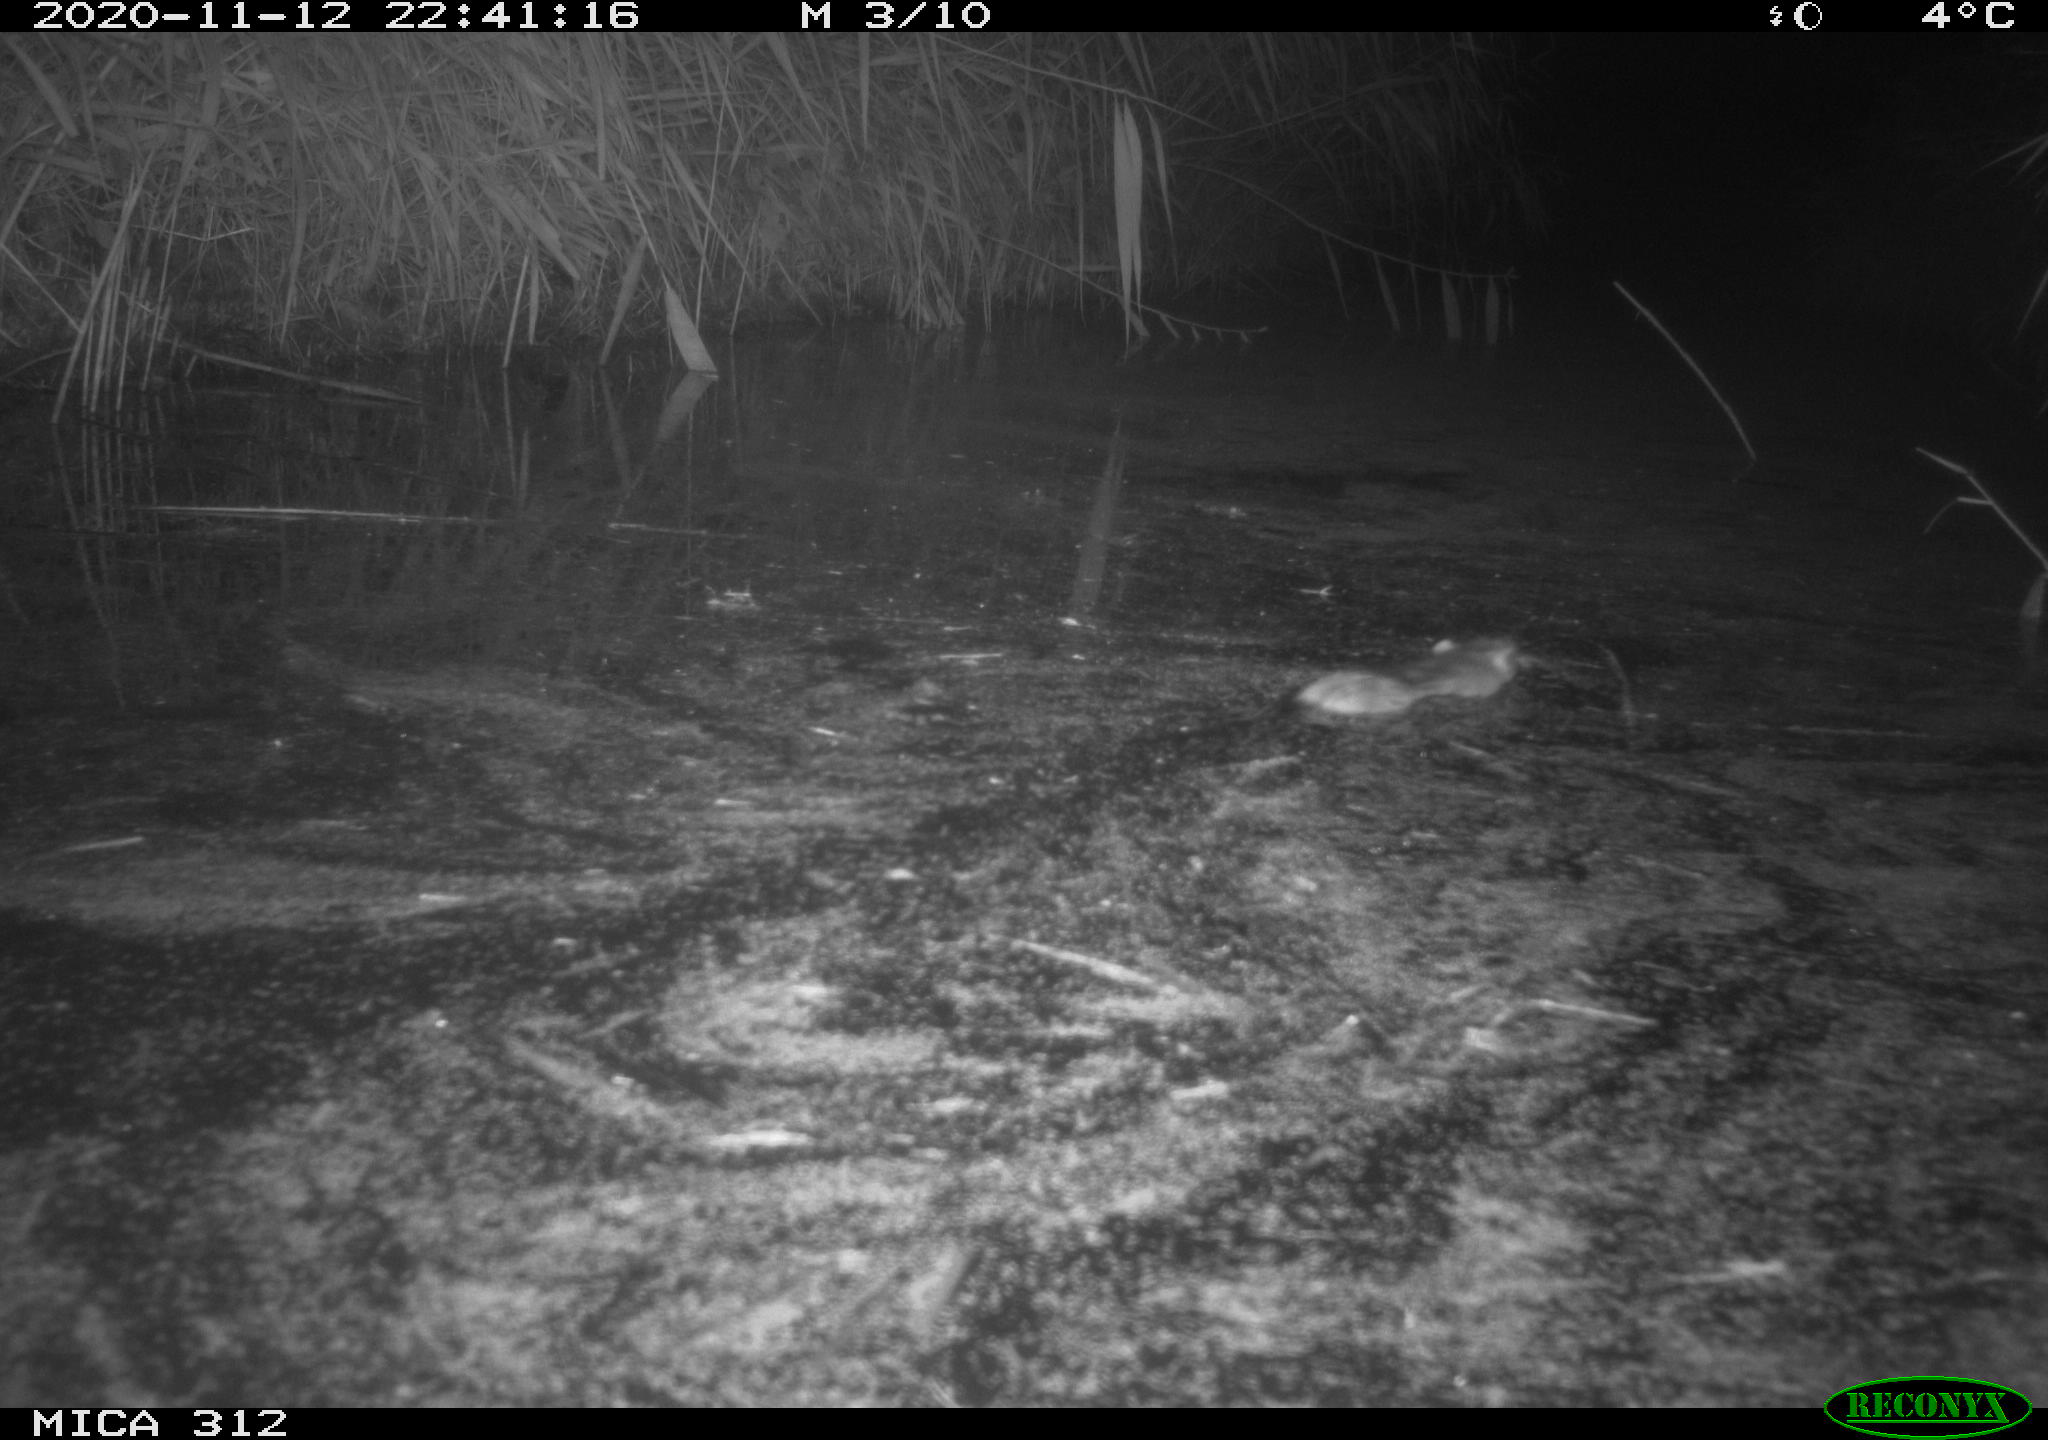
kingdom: Animalia
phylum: Chordata
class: Mammalia
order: Rodentia
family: Muridae
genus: Rattus
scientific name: Rattus norvegicus
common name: Brown rat
